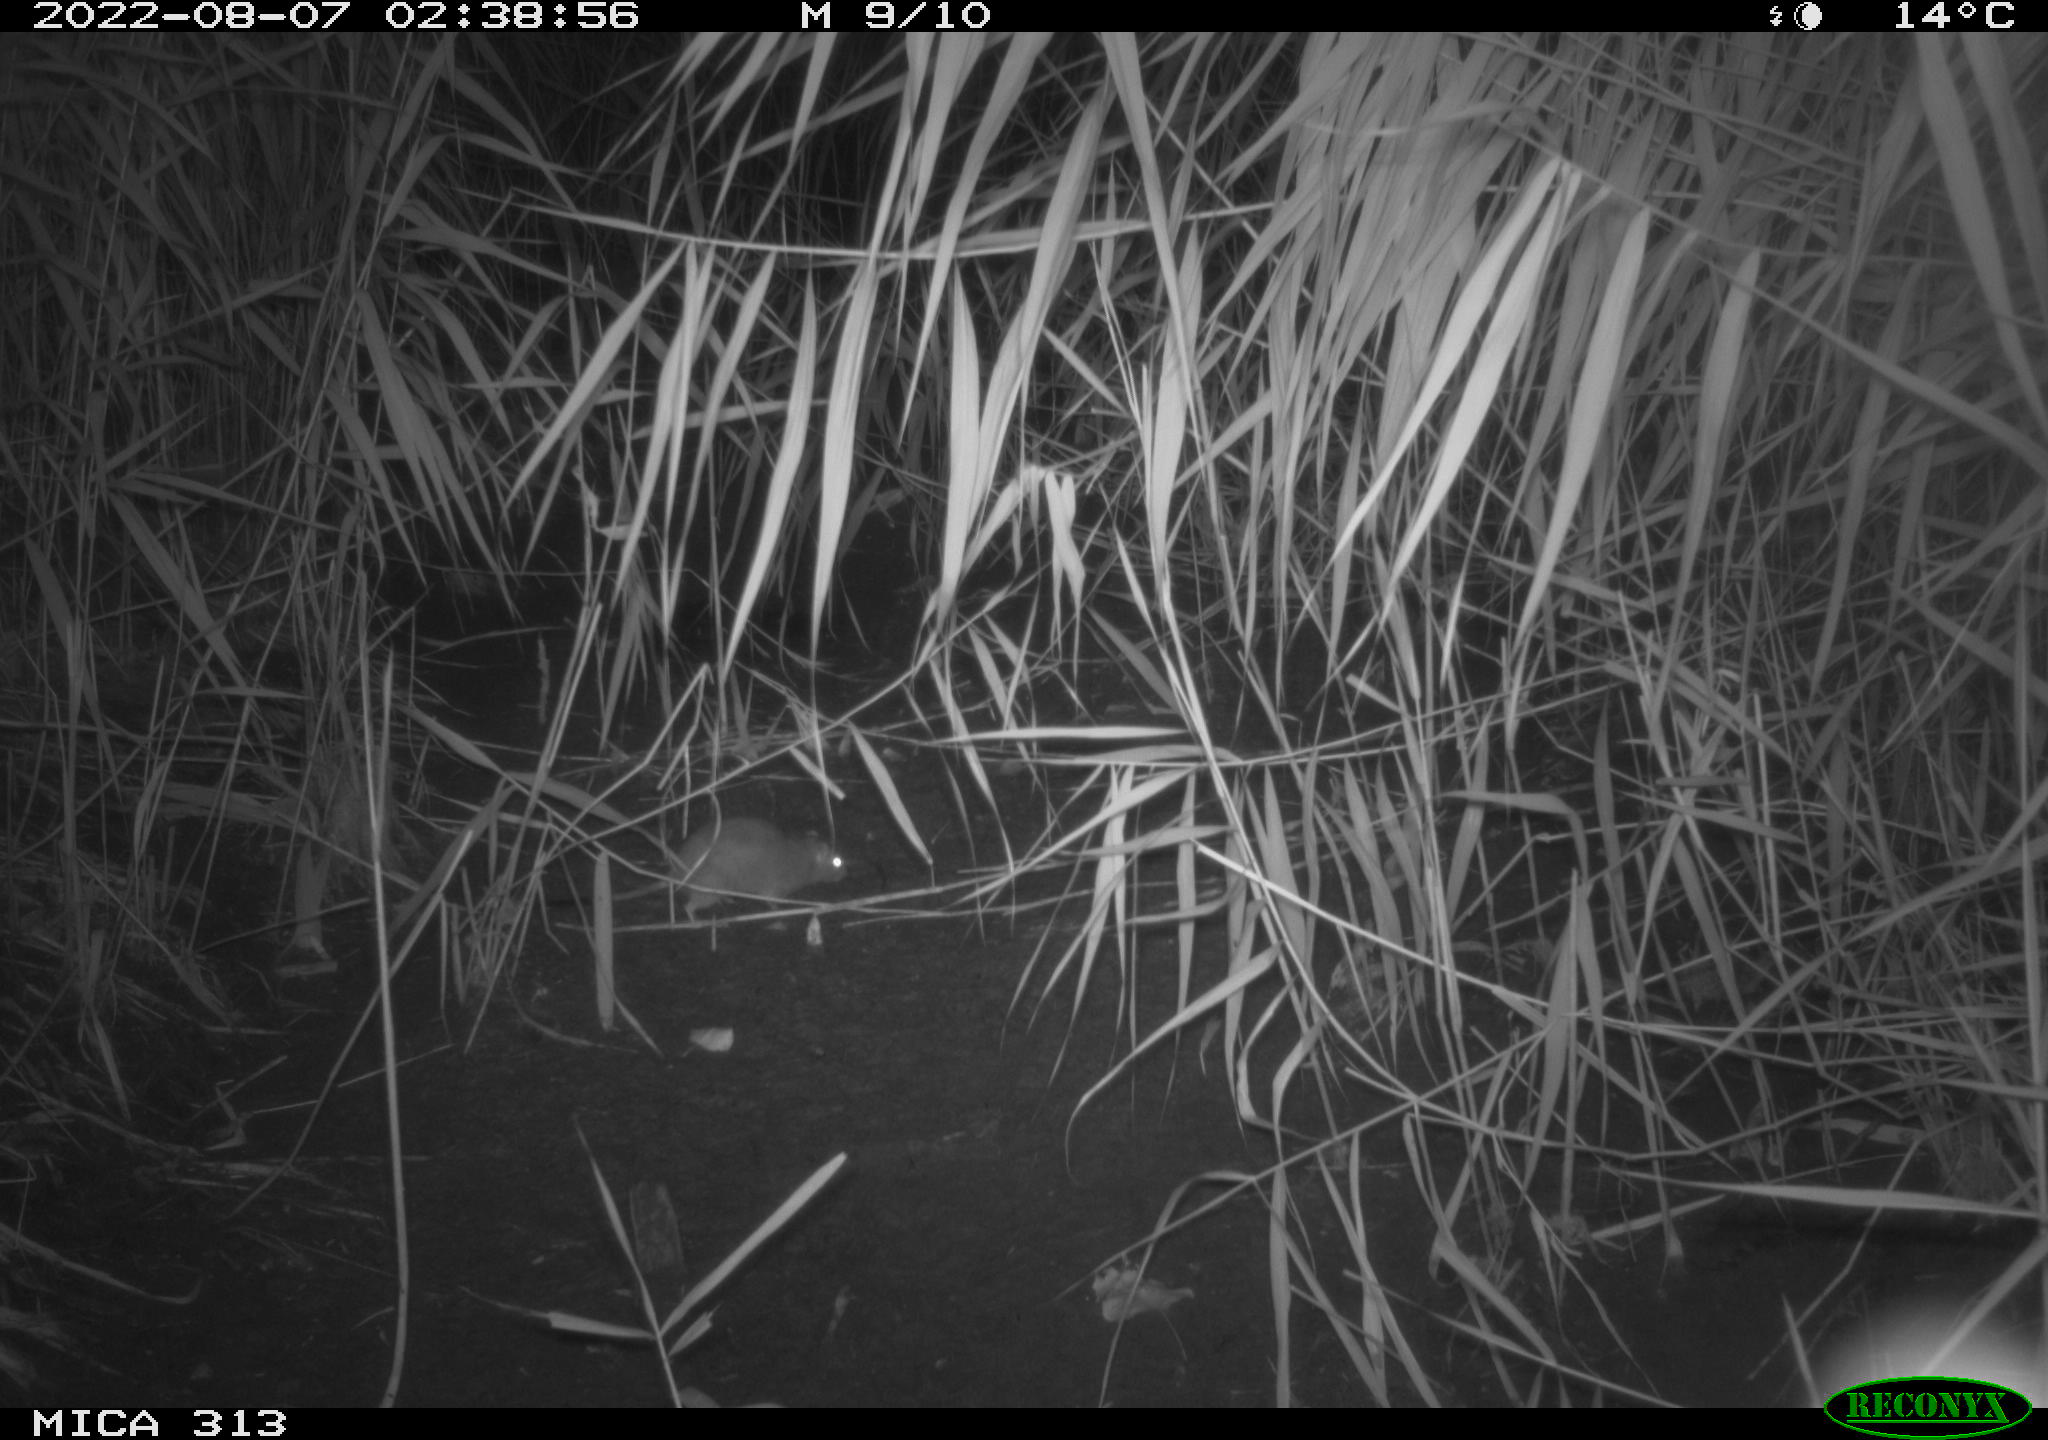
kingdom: Animalia
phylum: Chordata
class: Mammalia
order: Rodentia
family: Muridae
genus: Rattus
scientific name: Rattus norvegicus
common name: Brown rat
